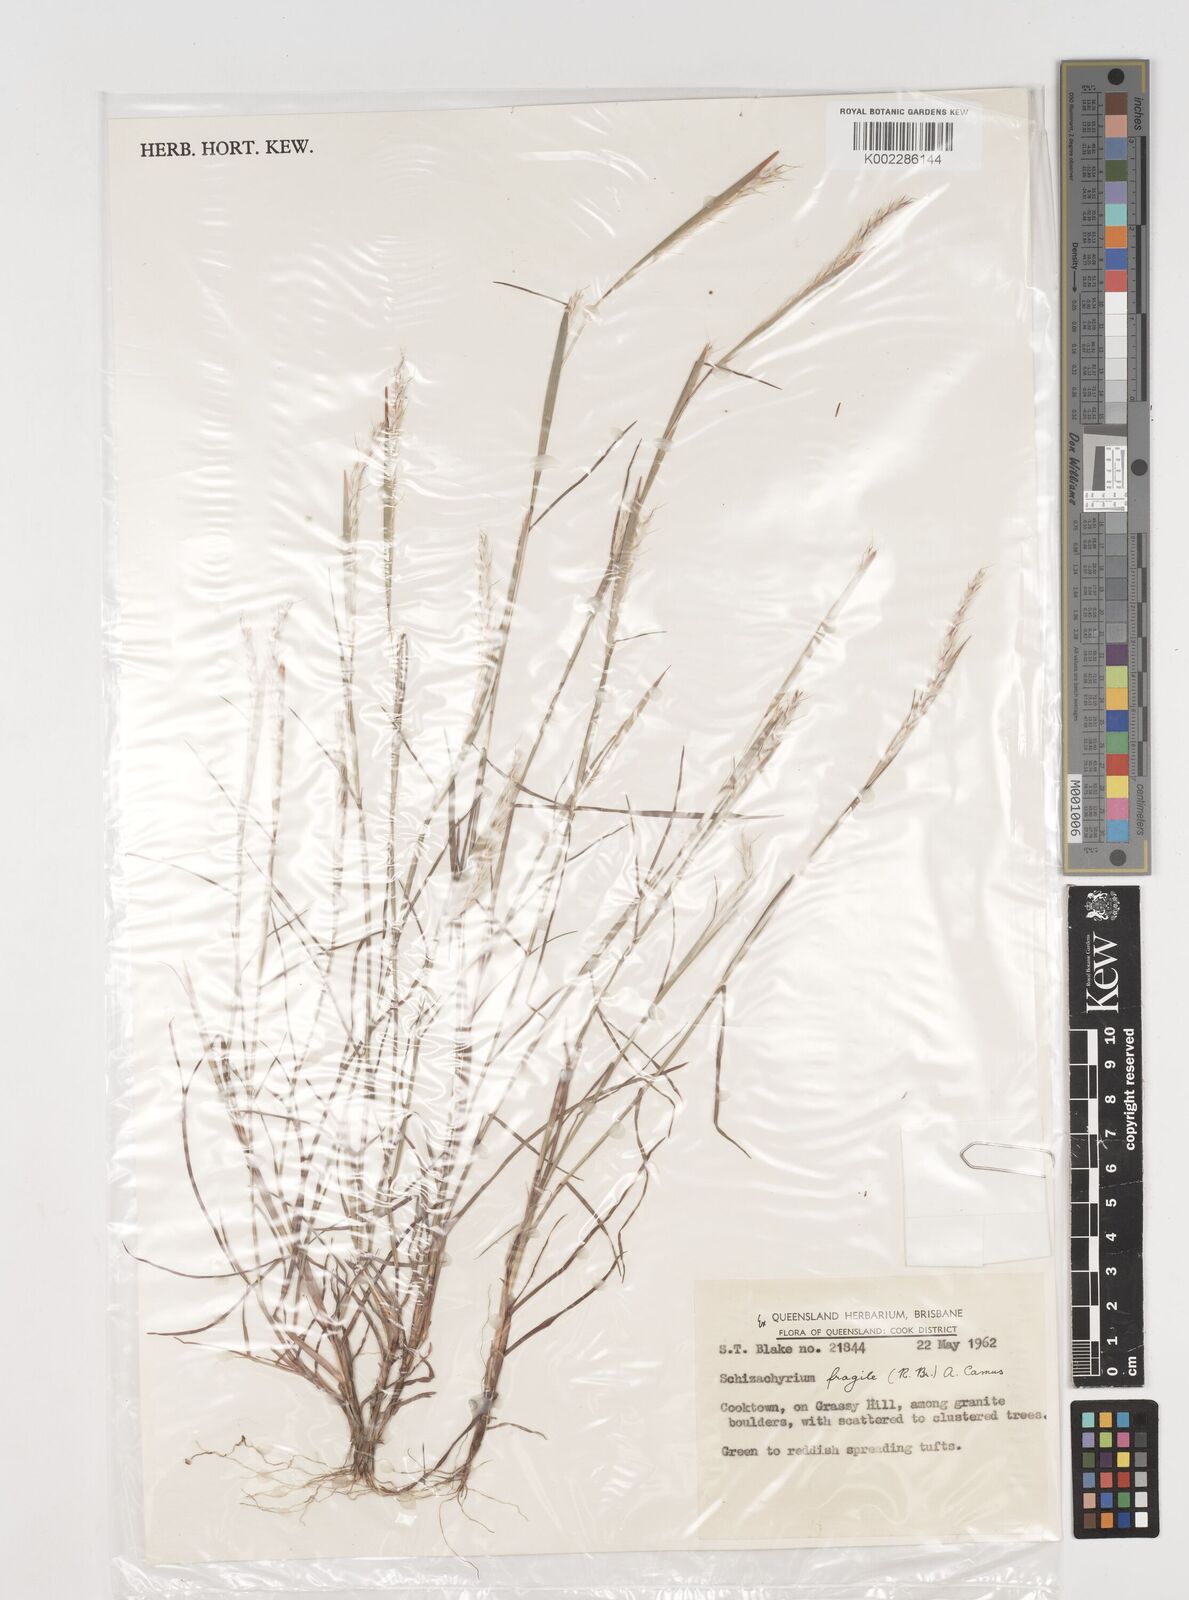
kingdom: Plantae
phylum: Tracheophyta
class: Liliopsida
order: Poales
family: Poaceae
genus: Schizachyrium
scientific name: Schizachyrium fragile
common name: Red spathe grass
